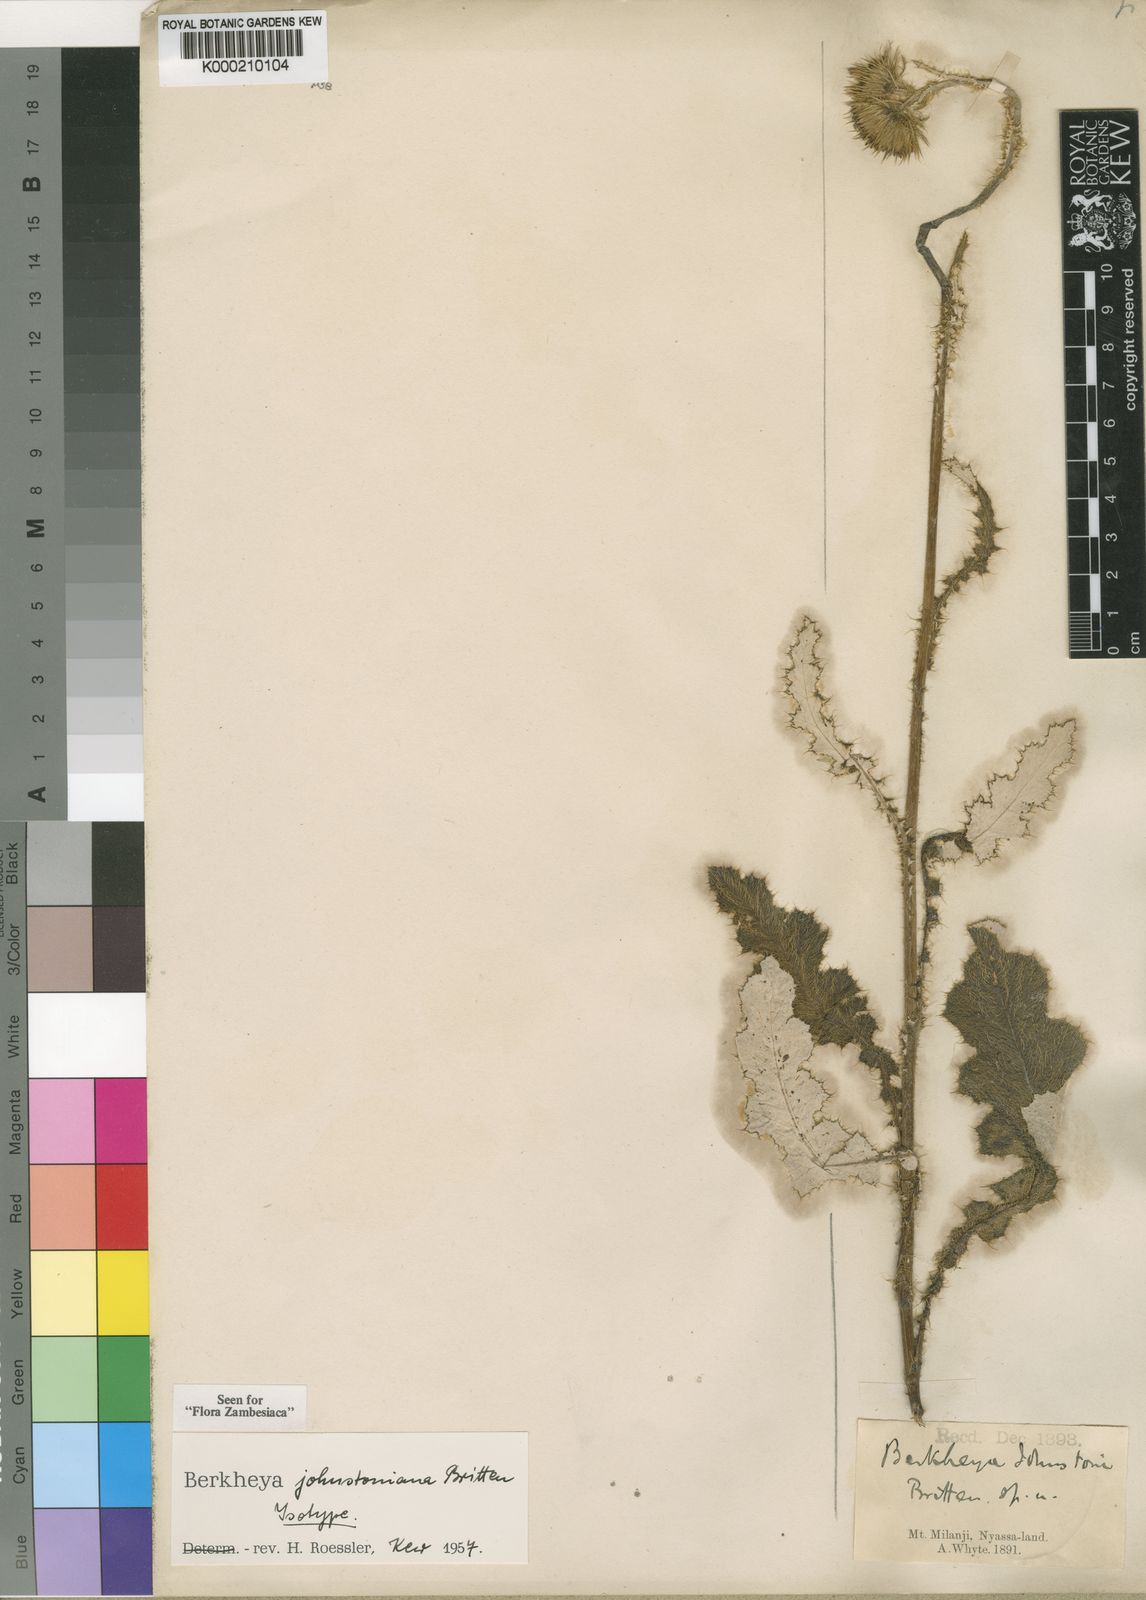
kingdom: Plantae
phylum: Tracheophyta
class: Magnoliopsida
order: Asterales
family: Asteraceae
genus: Berkheya
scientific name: Berkheya johnstoniana
